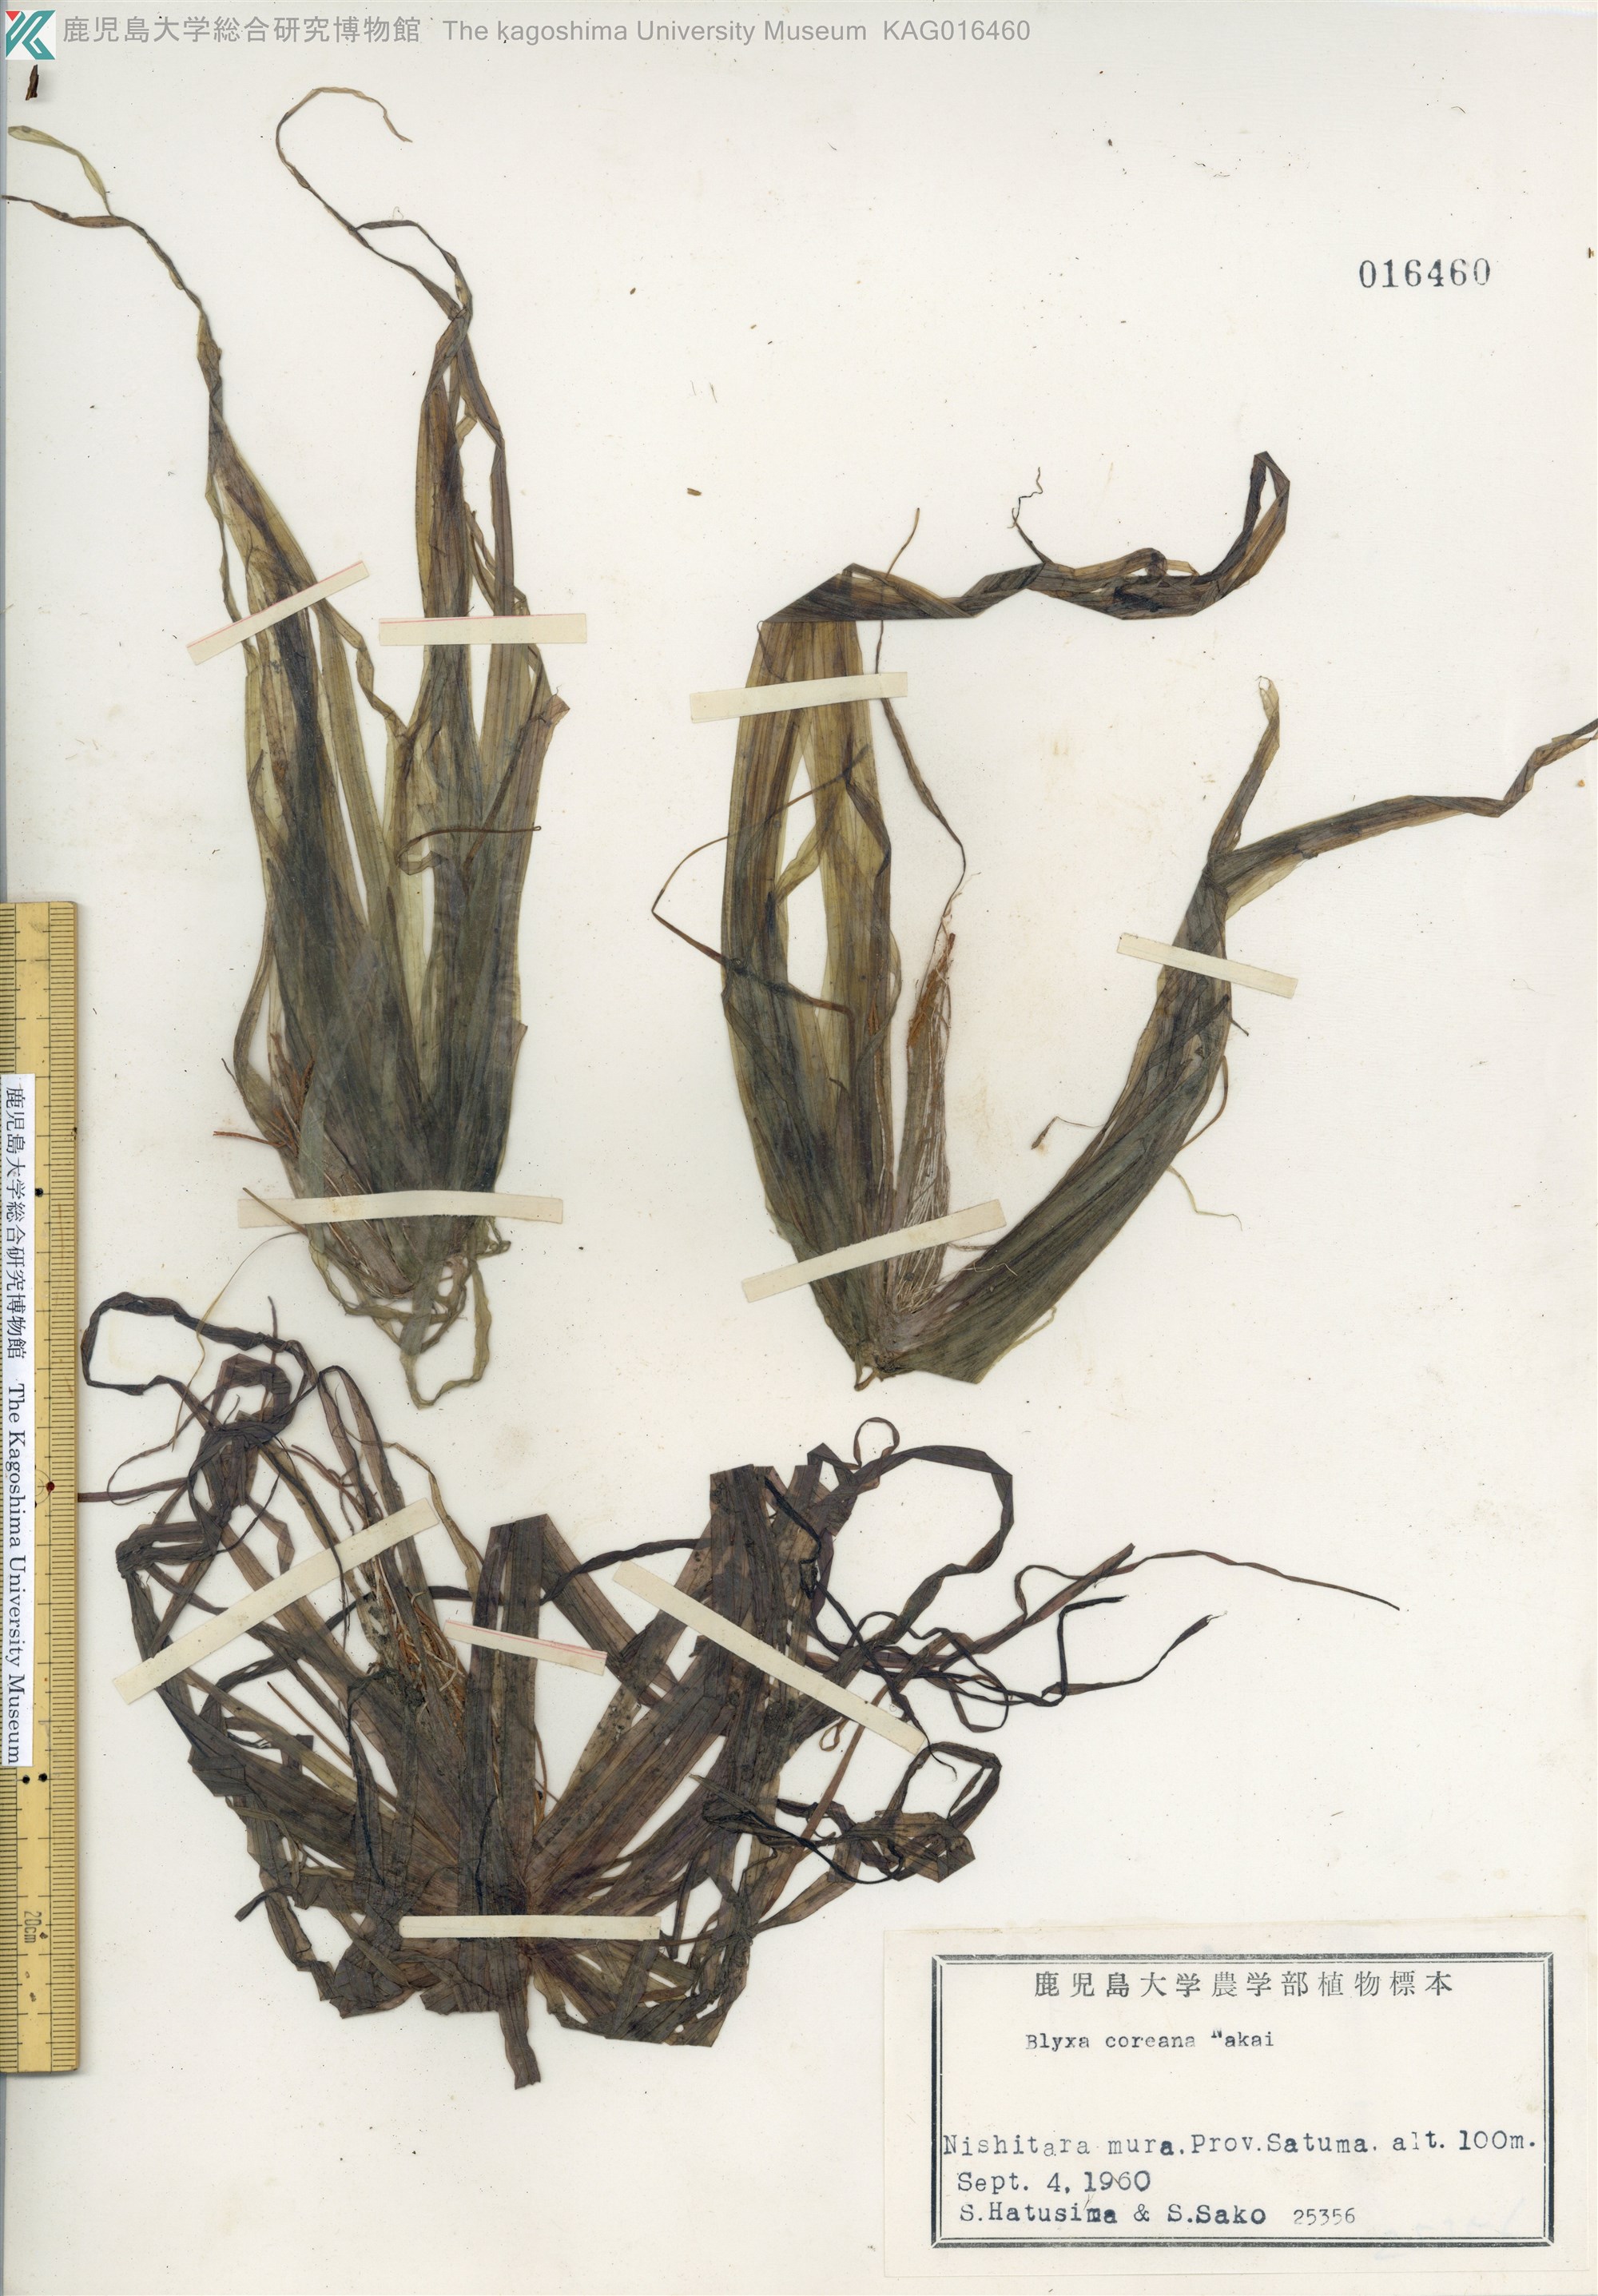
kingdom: Plantae
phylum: Tracheophyta
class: Liliopsida
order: Alismatales
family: Hydrocharitaceae
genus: Blyxa
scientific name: Blyxa aubertii
